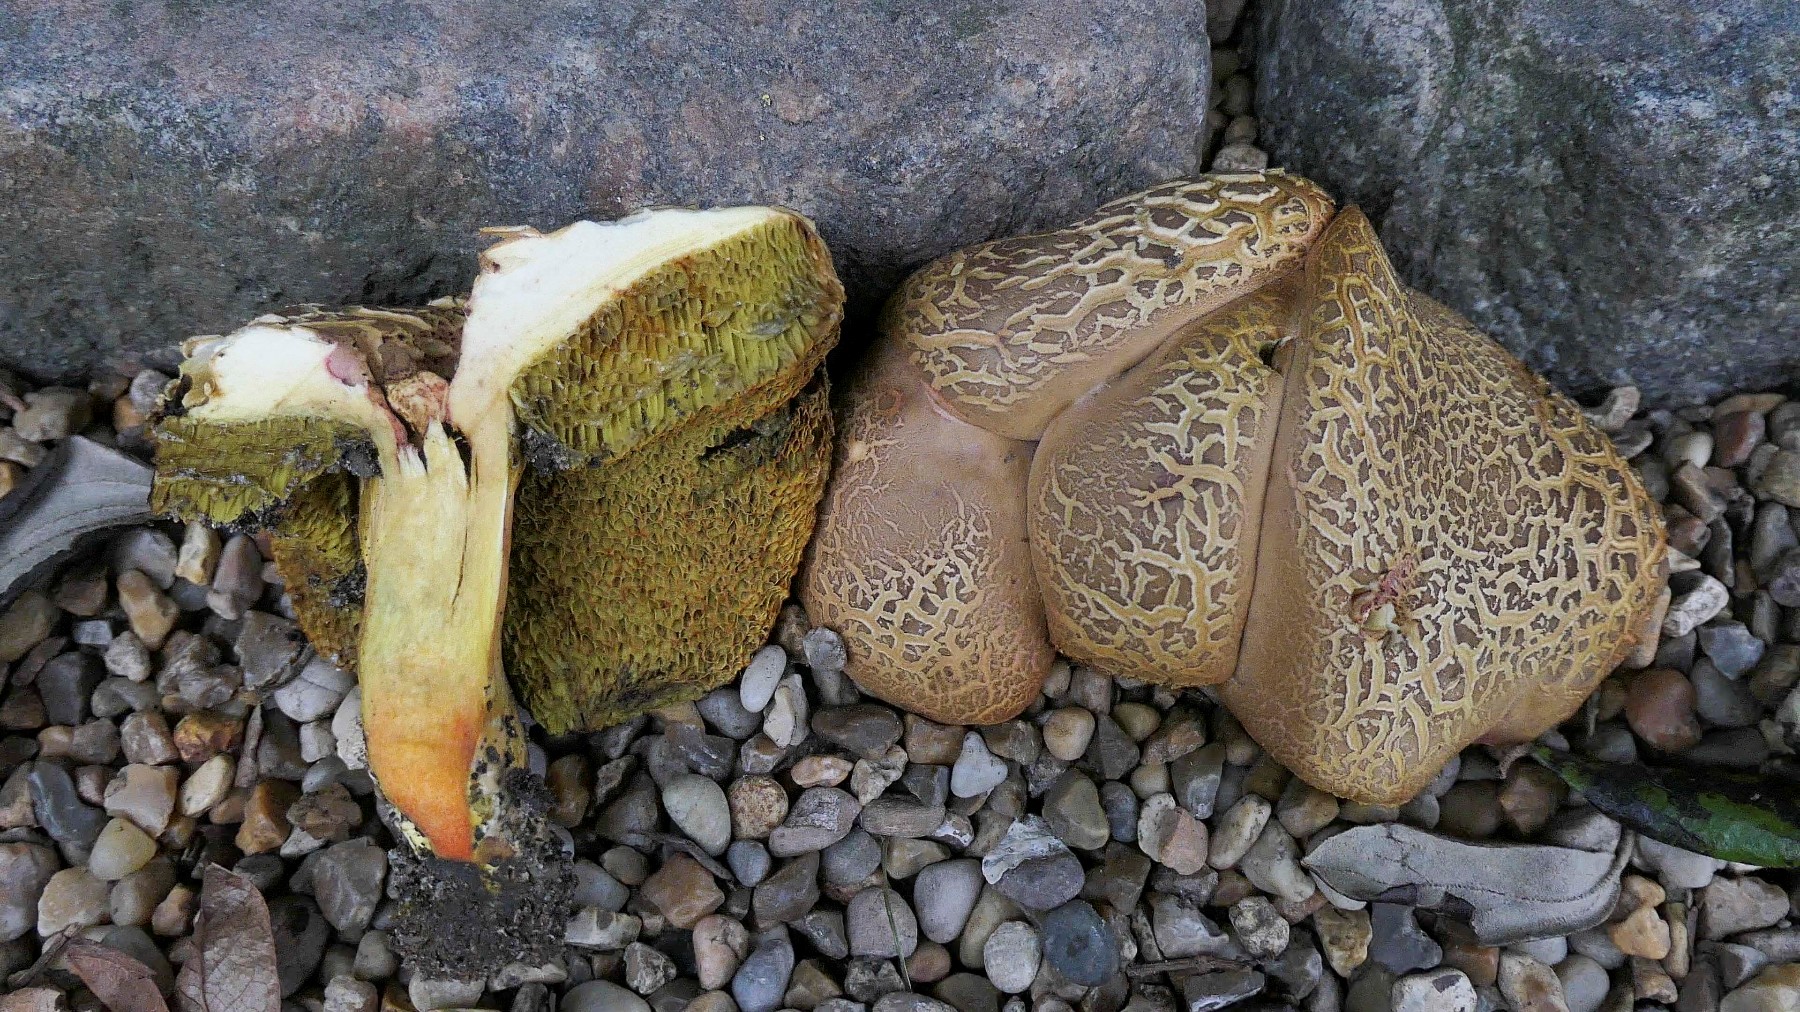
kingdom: Fungi
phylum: Basidiomycota
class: Agaricomycetes
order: Boletales
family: Boletaceae
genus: Hortiboletus
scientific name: Hortiboletus engelii
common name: fersken-rørhat
